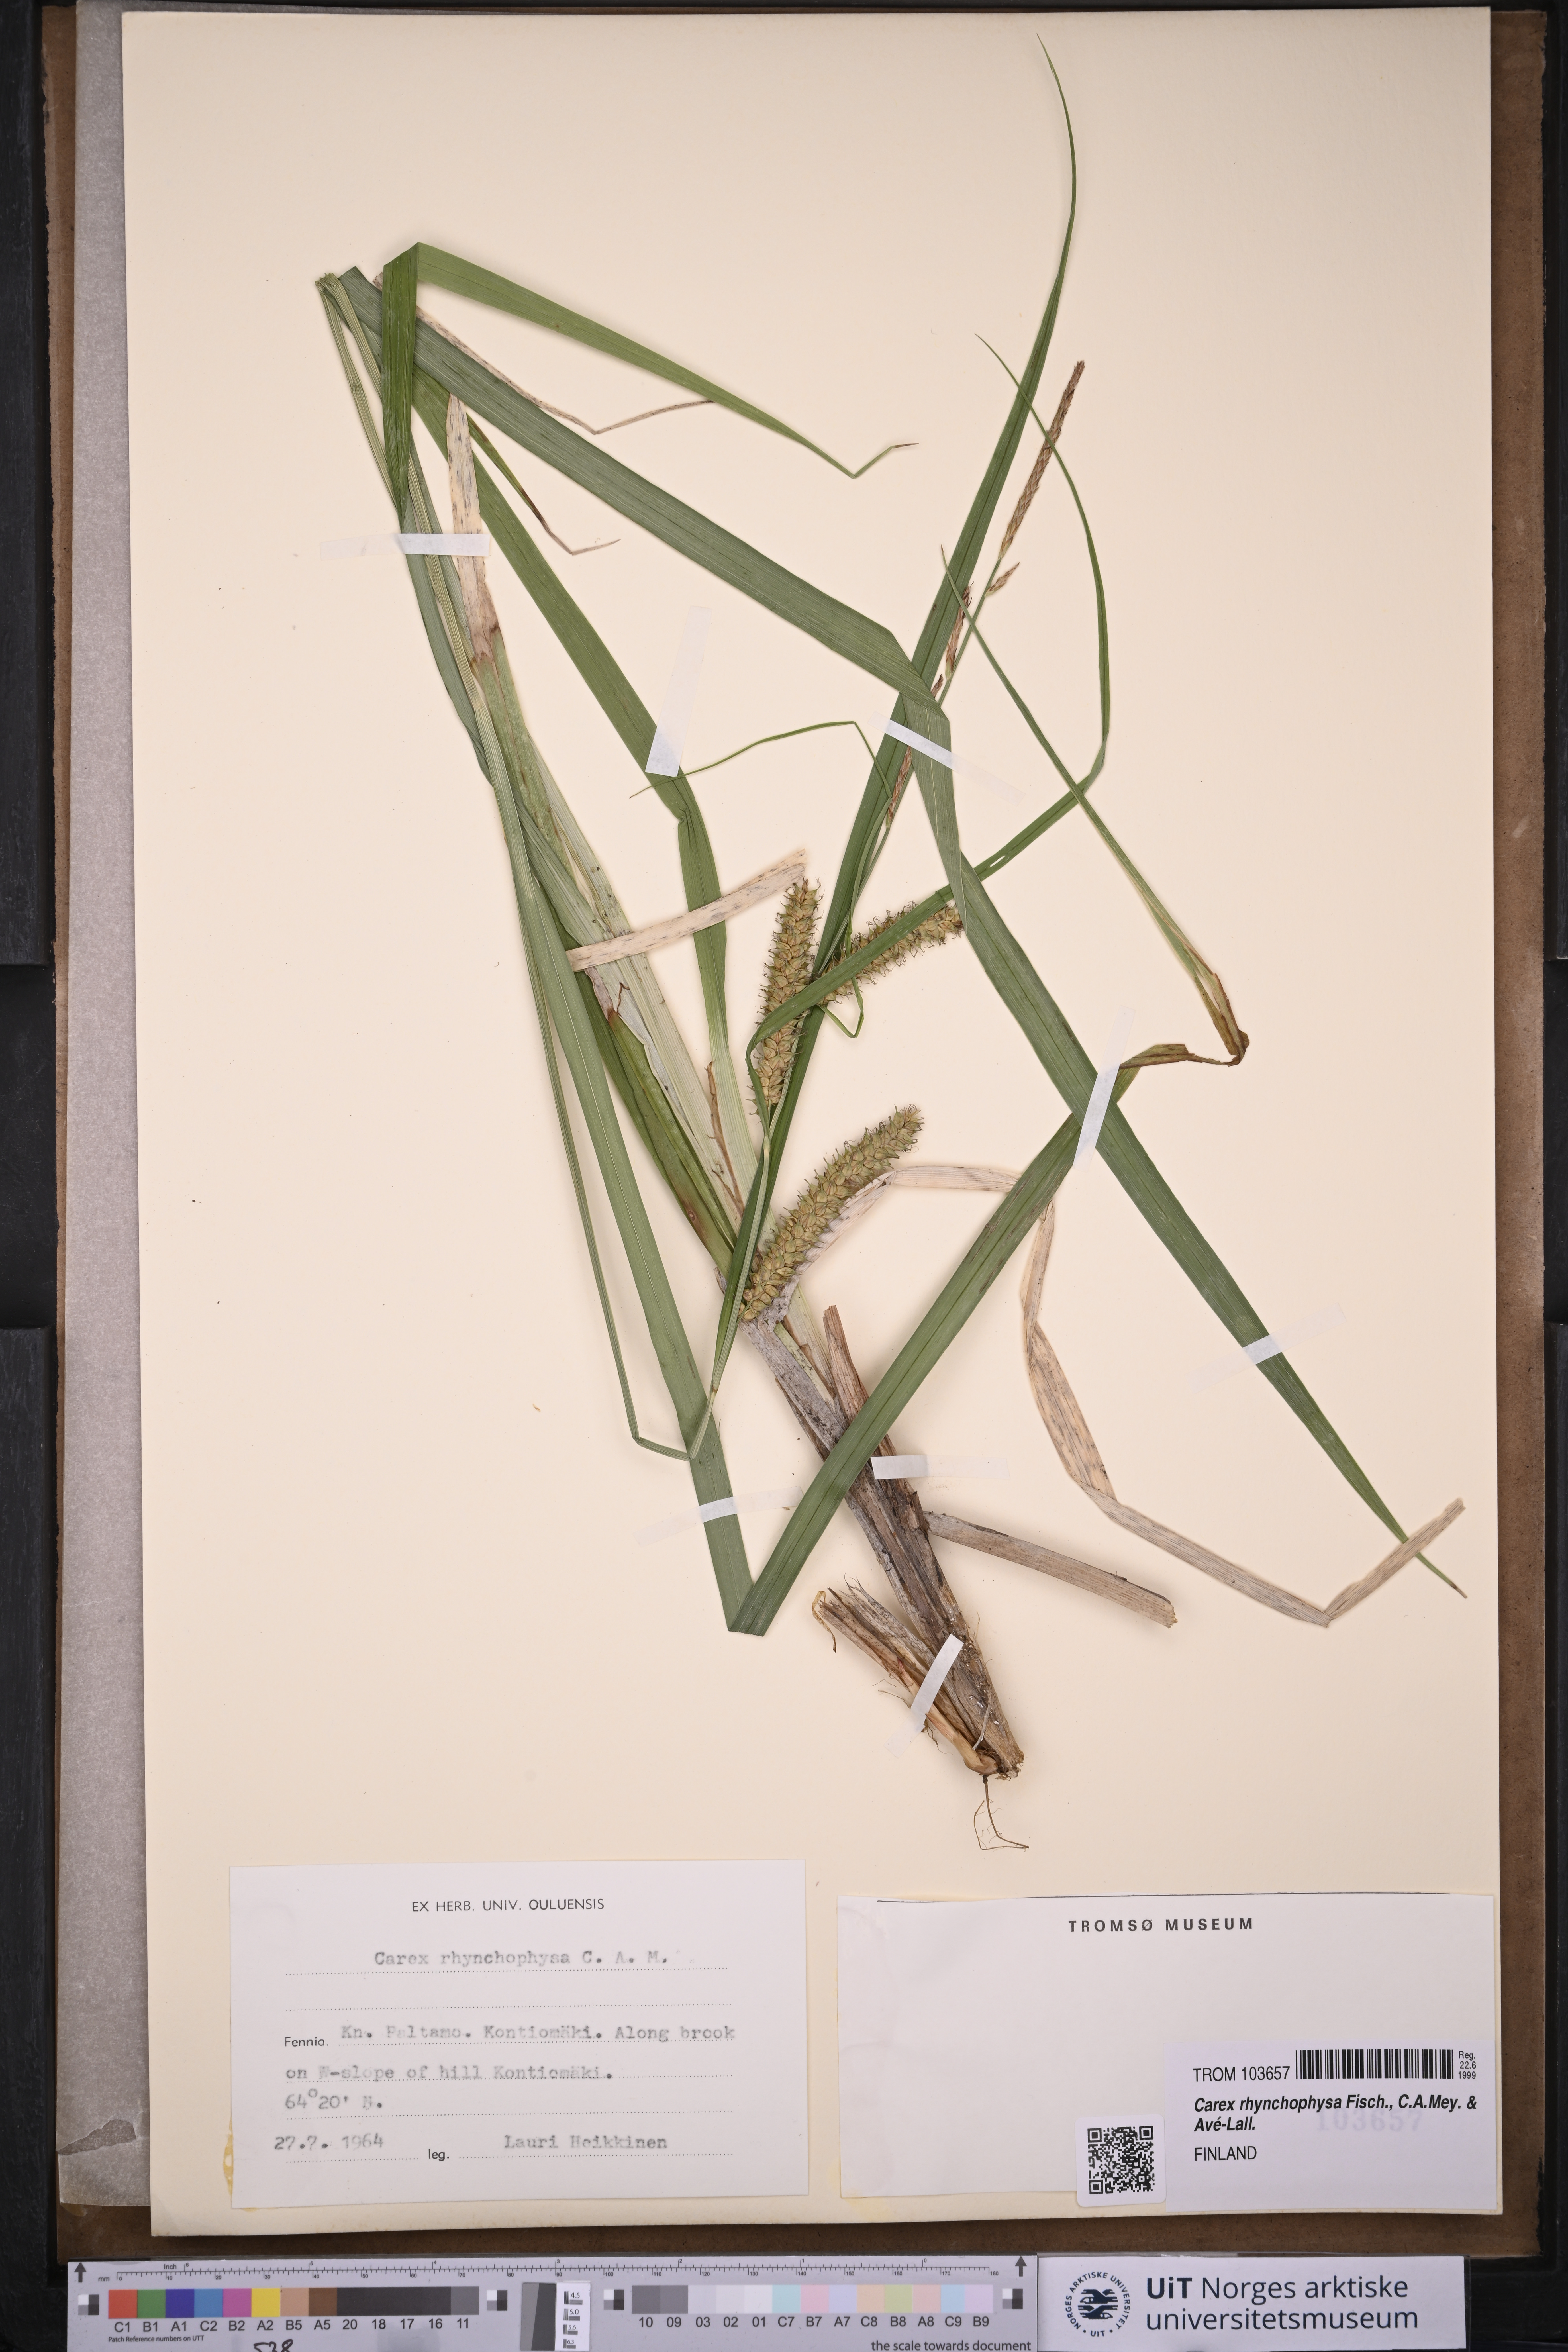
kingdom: Plantae
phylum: Tracheophyta
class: Liliopsida
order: Poales
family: Cyperaceae
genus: Carex
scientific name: Carex utriculata
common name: Beaked sedge
